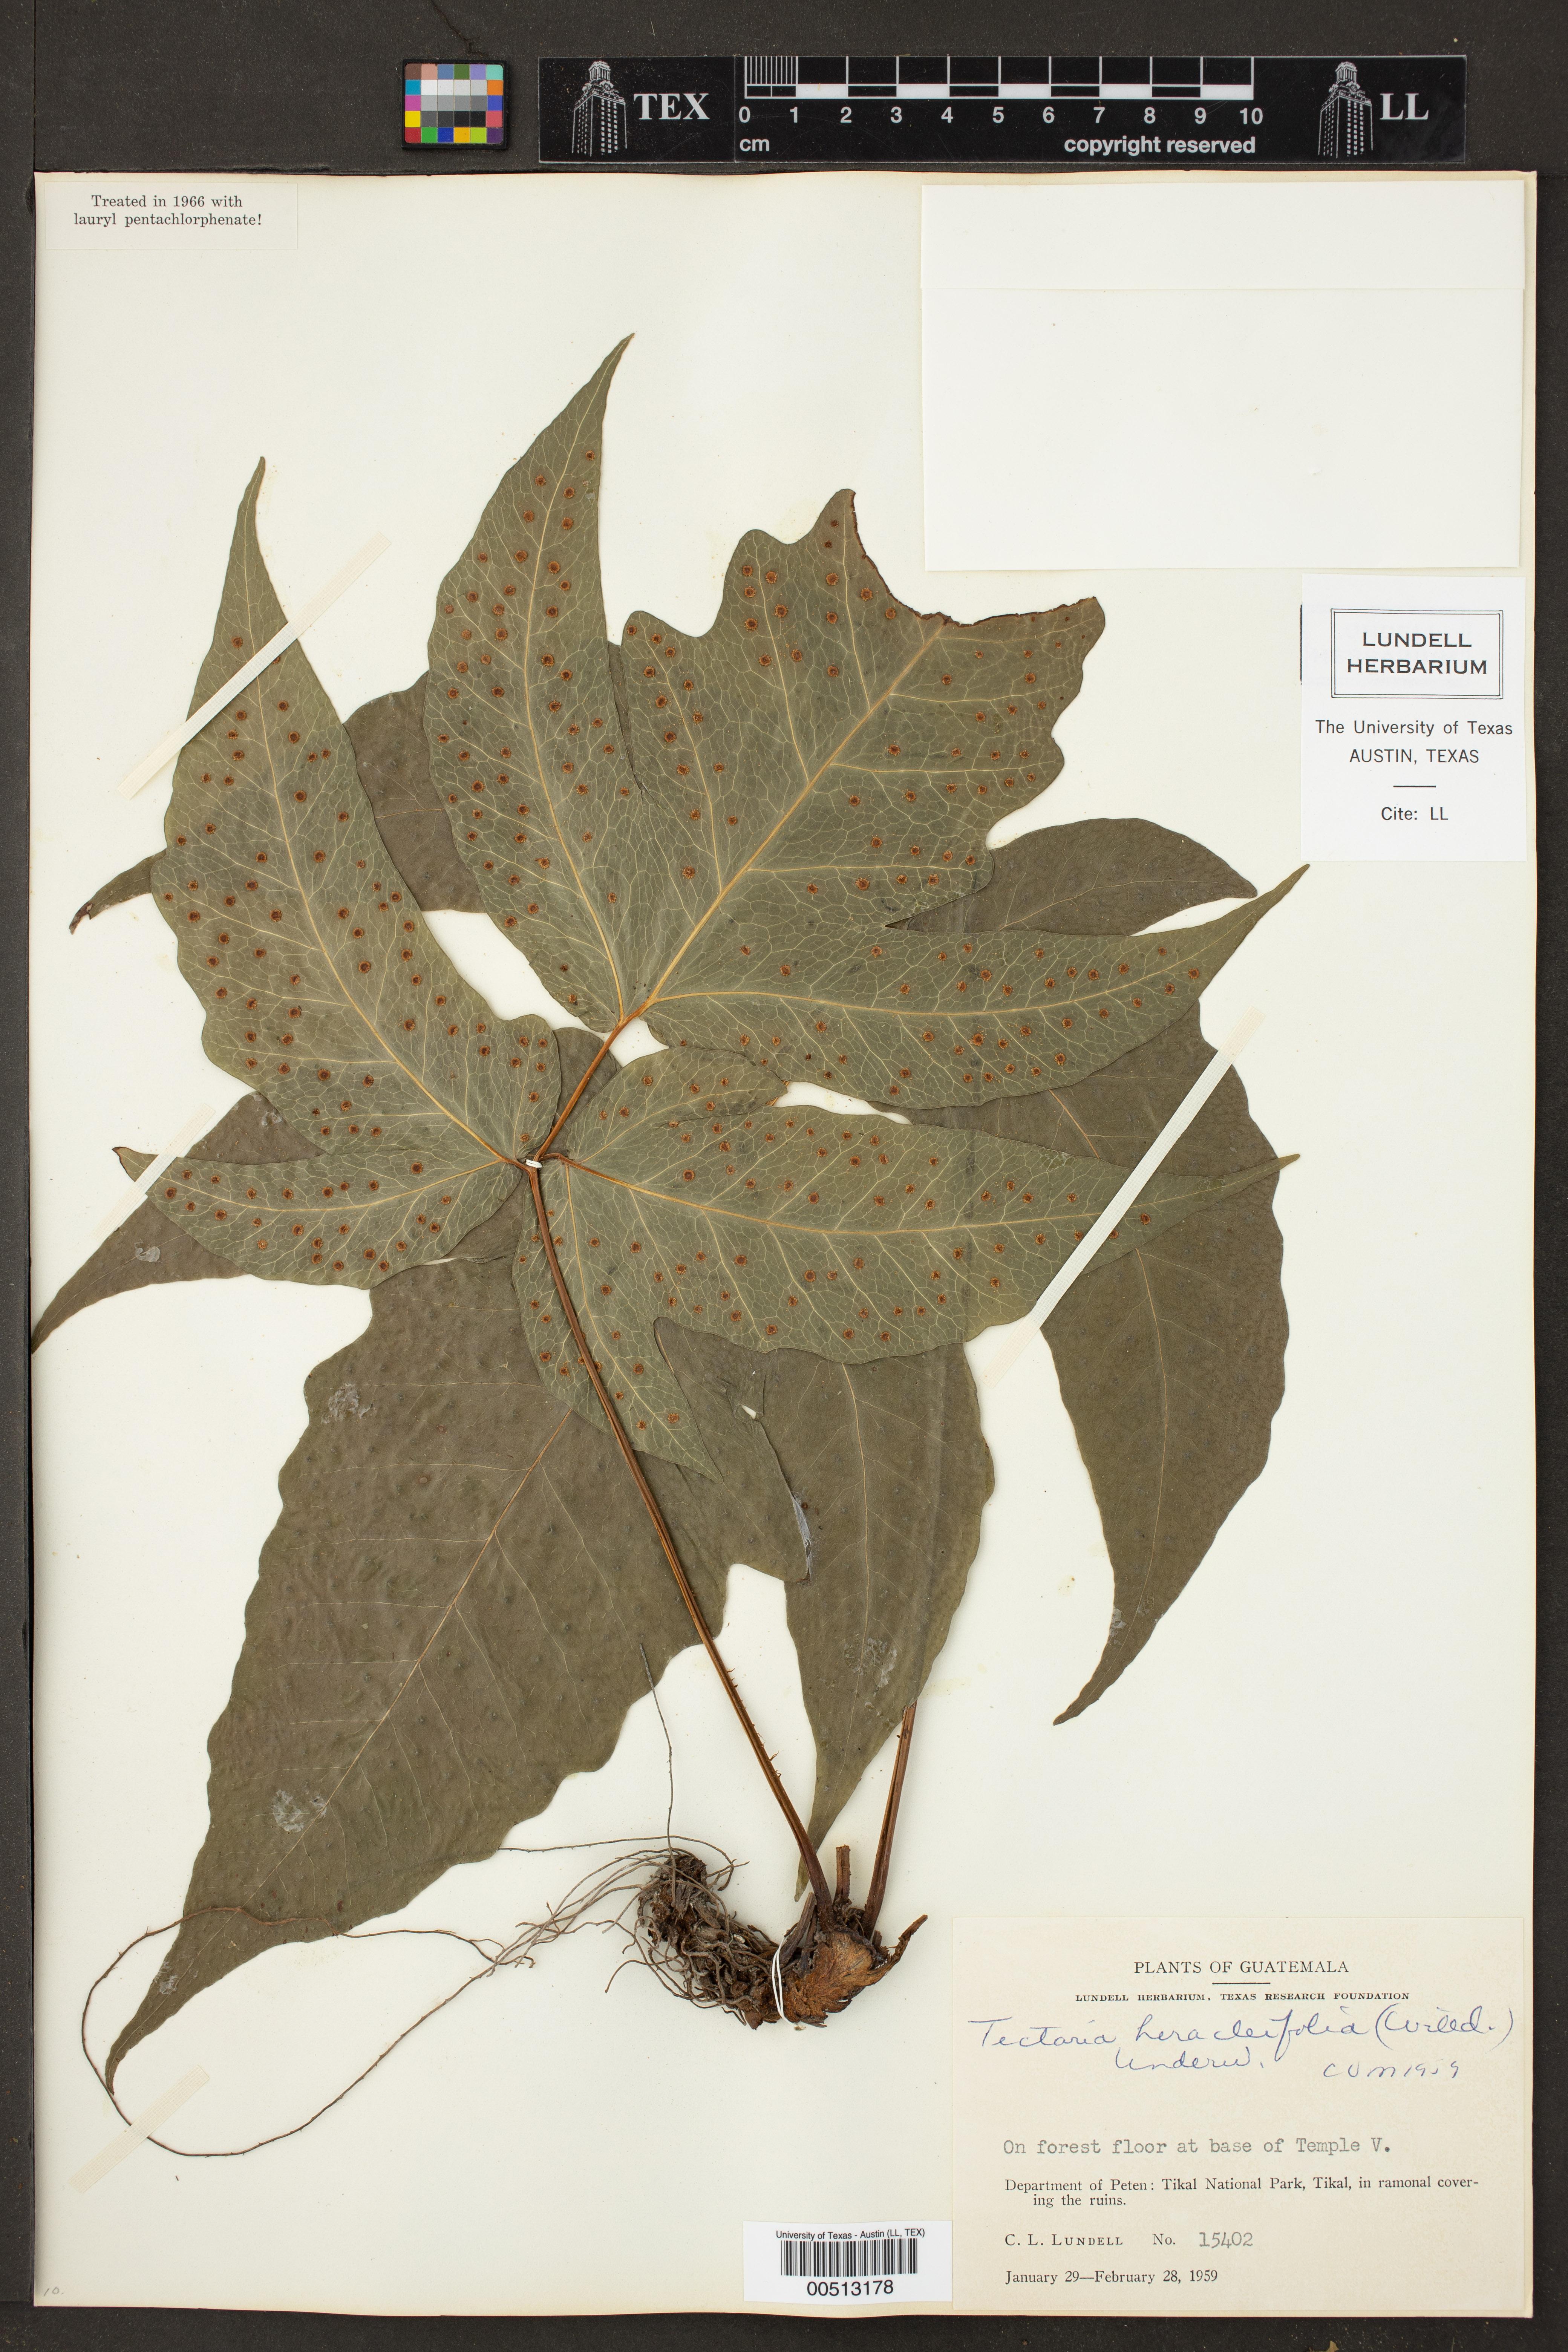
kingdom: Plantae
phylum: Tracheophyta
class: Polypodiopsida
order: Polypodiales
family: Tectariaceae
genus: Tectaria
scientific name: Tectaria heracleifolia
